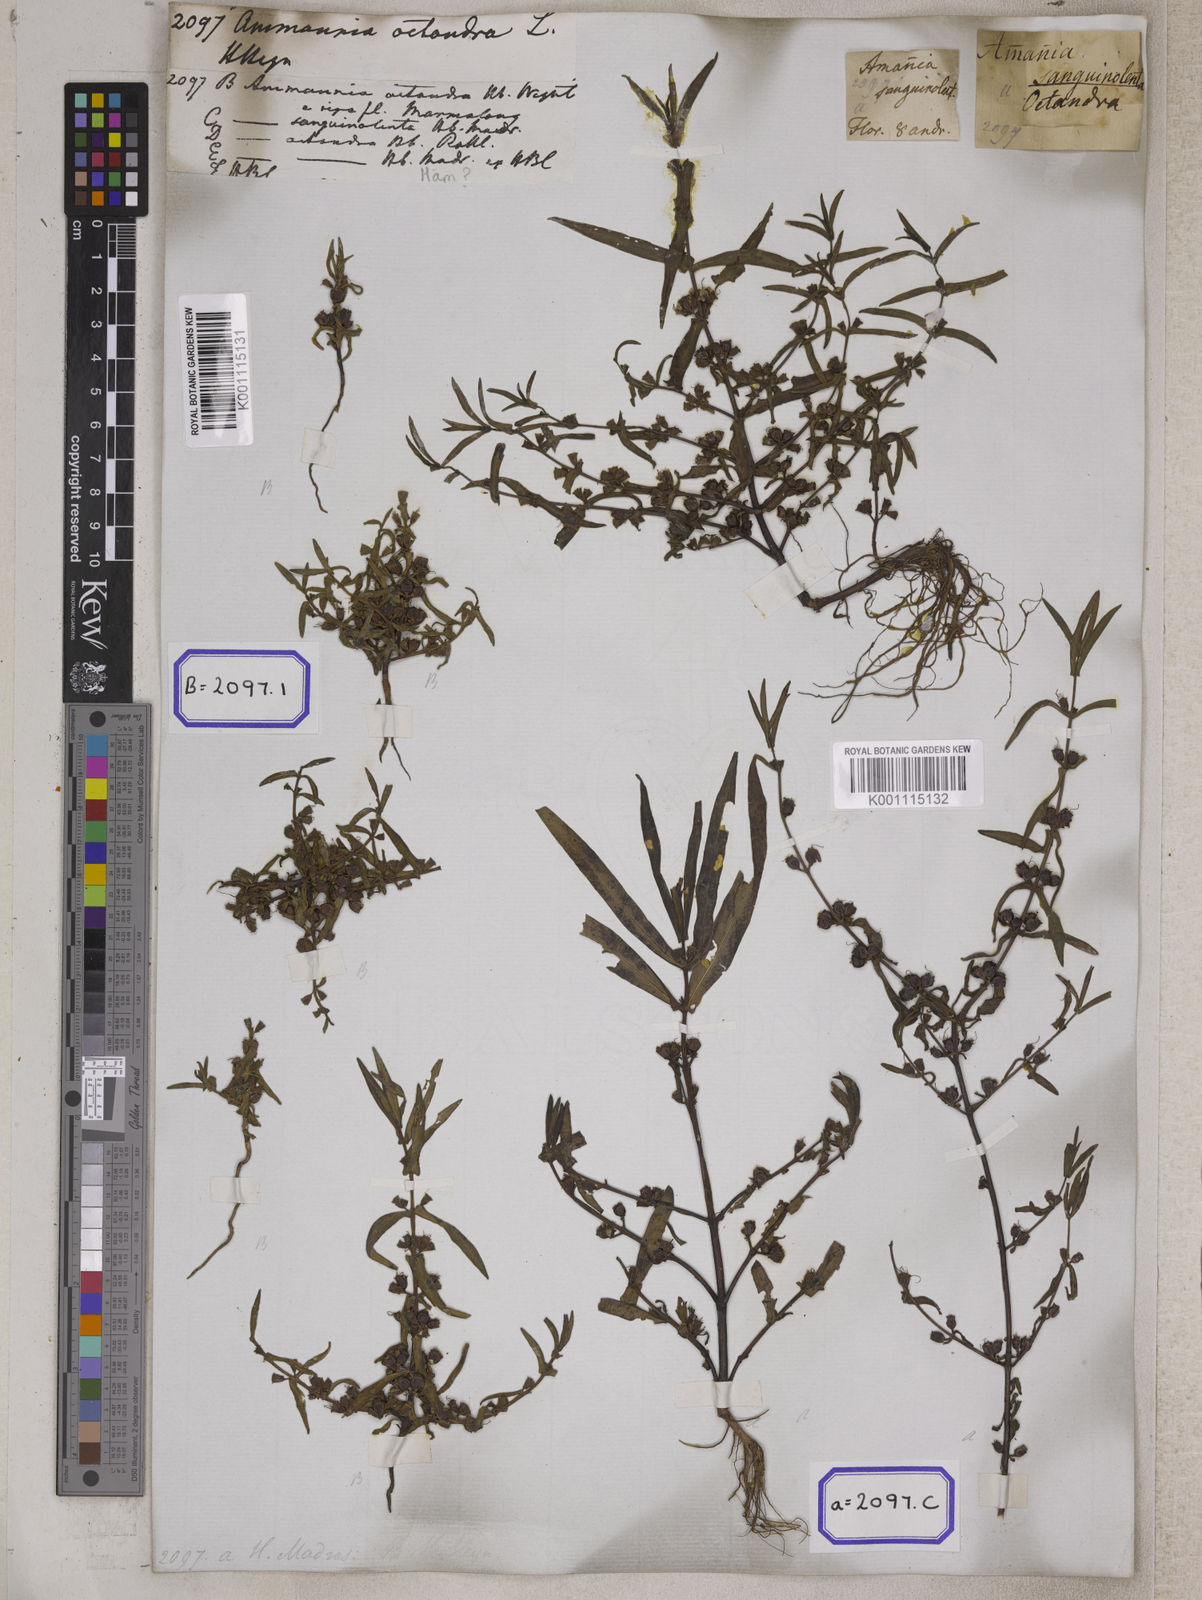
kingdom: Plantae
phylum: Tracheophyta
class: Magnoliopsida
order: Myrtales
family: Lythraceae
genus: Ammannia
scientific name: Ammannia octandra
